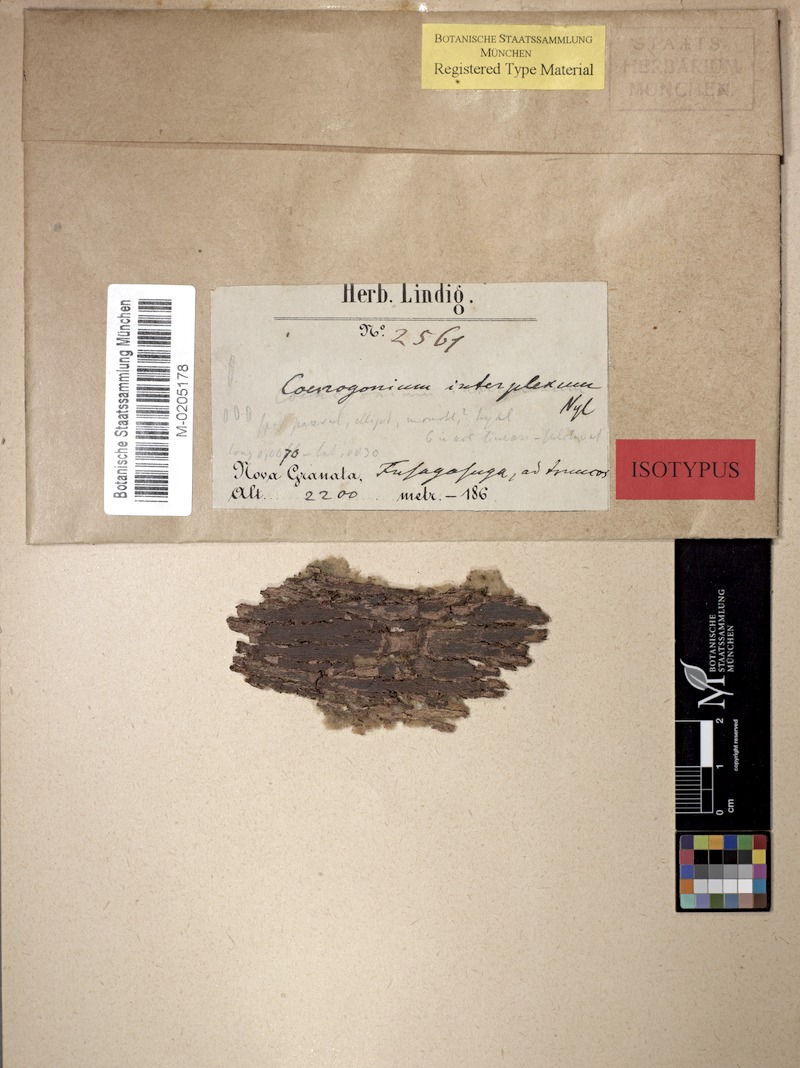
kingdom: Fungi
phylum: Ascomycota
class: Lecanoromycetes
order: Ostropales
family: Coenogoniaceae
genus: Coenogonium
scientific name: Coenogonium interplexum
